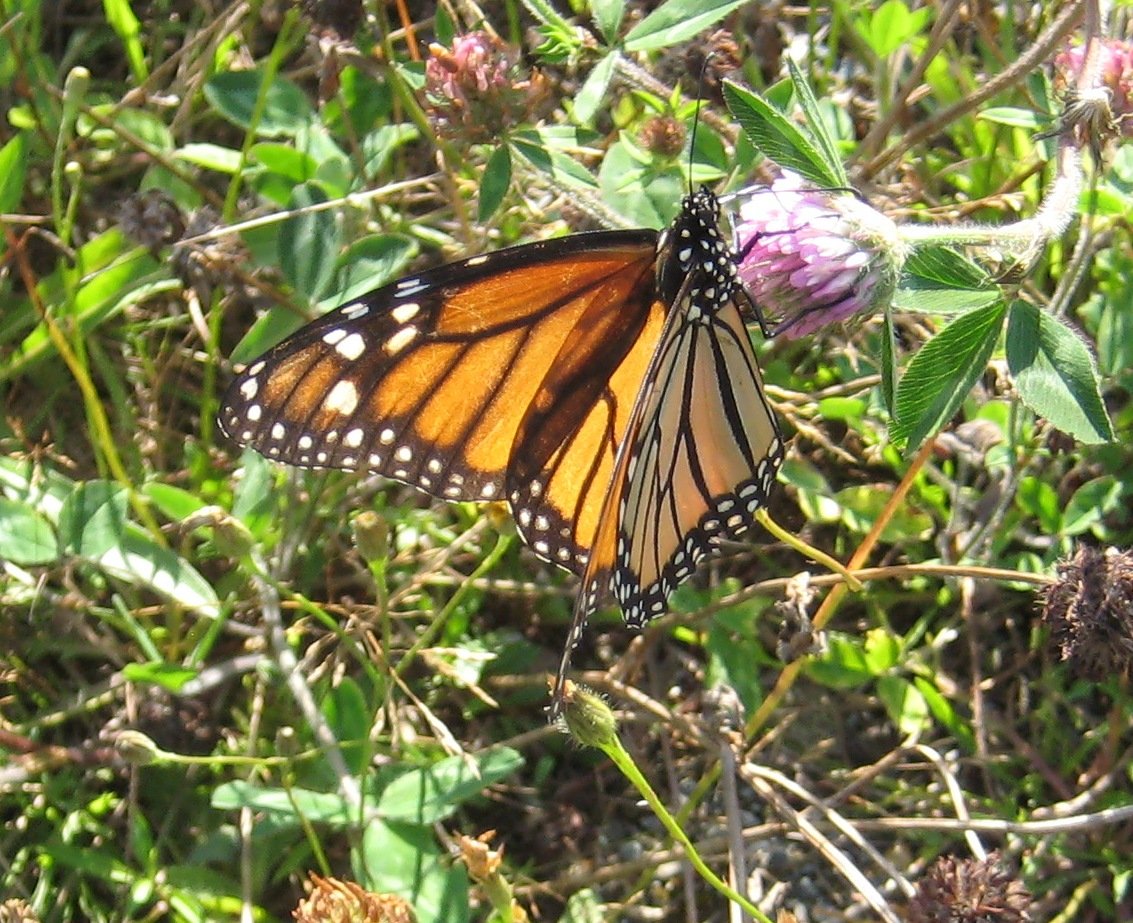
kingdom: Animalia
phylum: Arthropoda
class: Insecta
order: Lepidoptera
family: Nymphalidae
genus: Danaus
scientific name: Danaus plexippus
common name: Monarch
